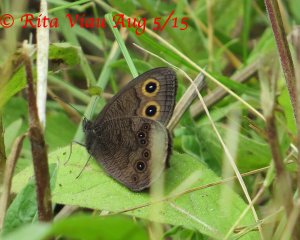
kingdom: Animalia
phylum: Arthropoda
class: Insecta
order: Lepidoptera
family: Nymphalidae
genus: Cercyonis
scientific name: Cercyonis pegala
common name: Common Wood-Nymph
